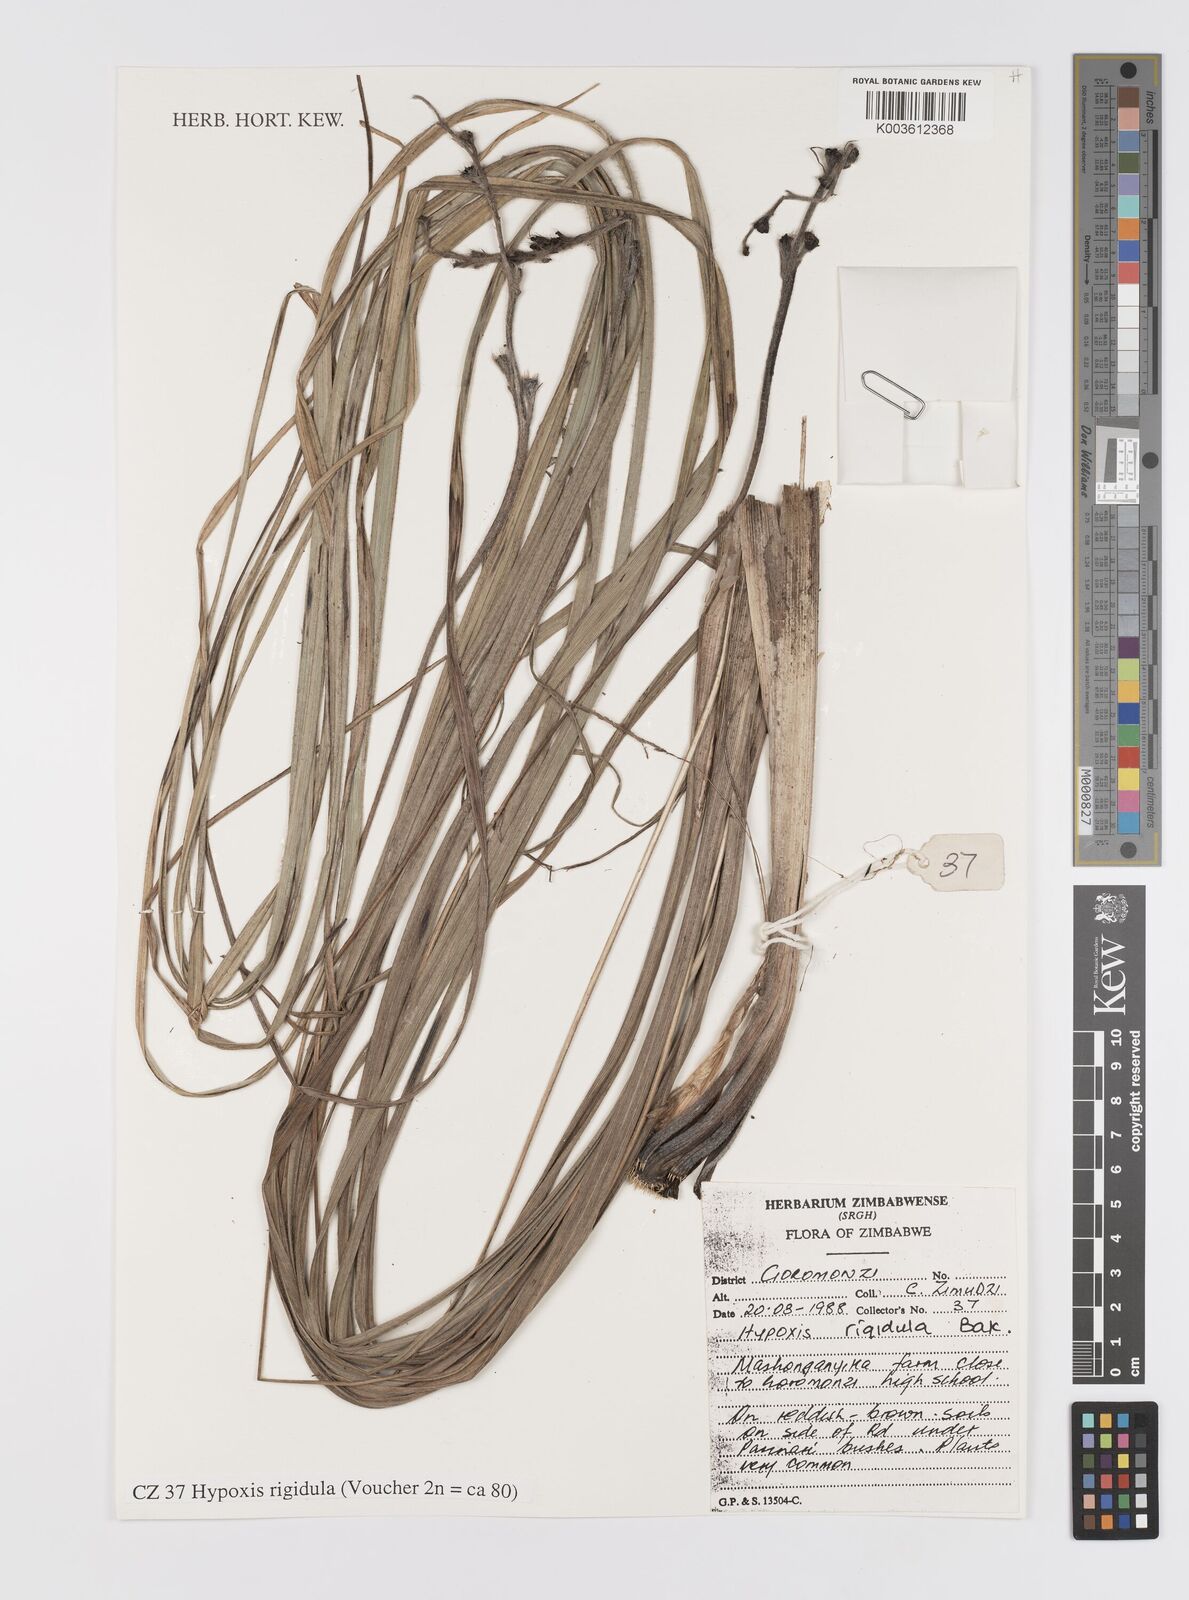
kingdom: Plantae
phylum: Tracheophyta
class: Liliopsida
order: Asparagales
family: Hypoxidaceae
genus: Hypoxis
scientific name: Hypoxis rigidula
